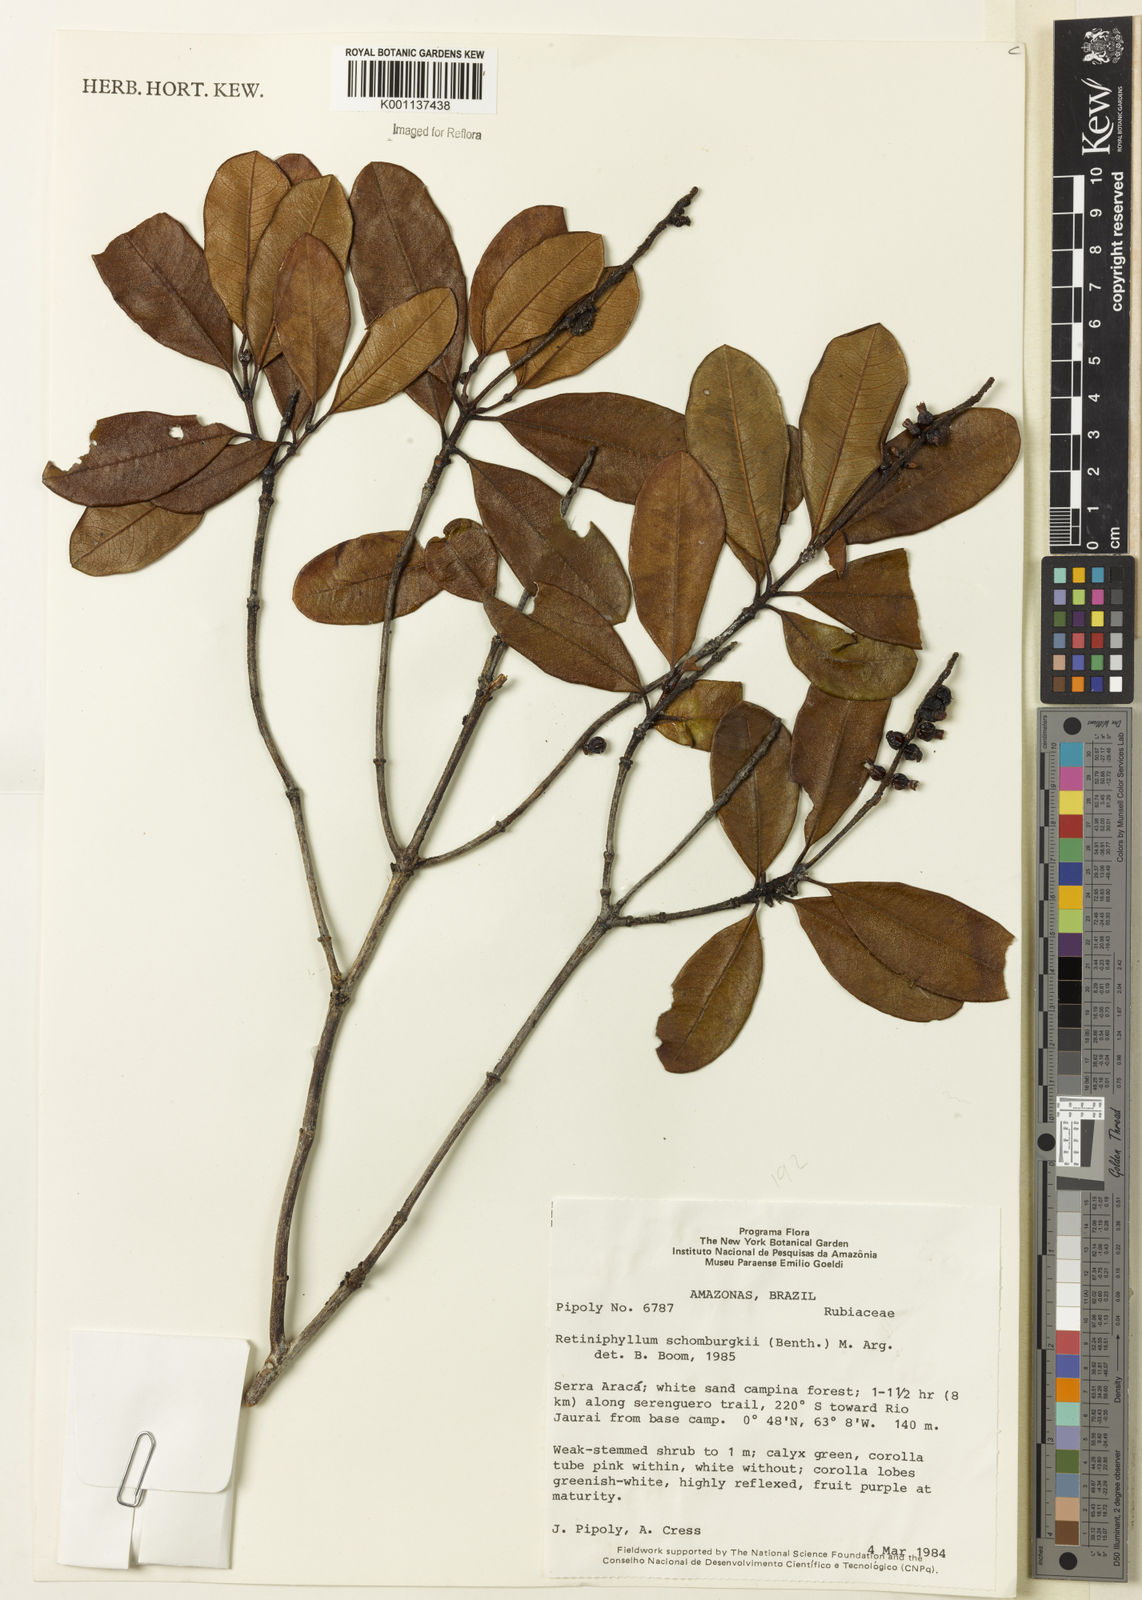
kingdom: Plantae
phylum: Tracheophyta
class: Magnoliopsida
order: Gentianales
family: Rubiaceae
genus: Retiniphyllum
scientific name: Retiniphyllum
